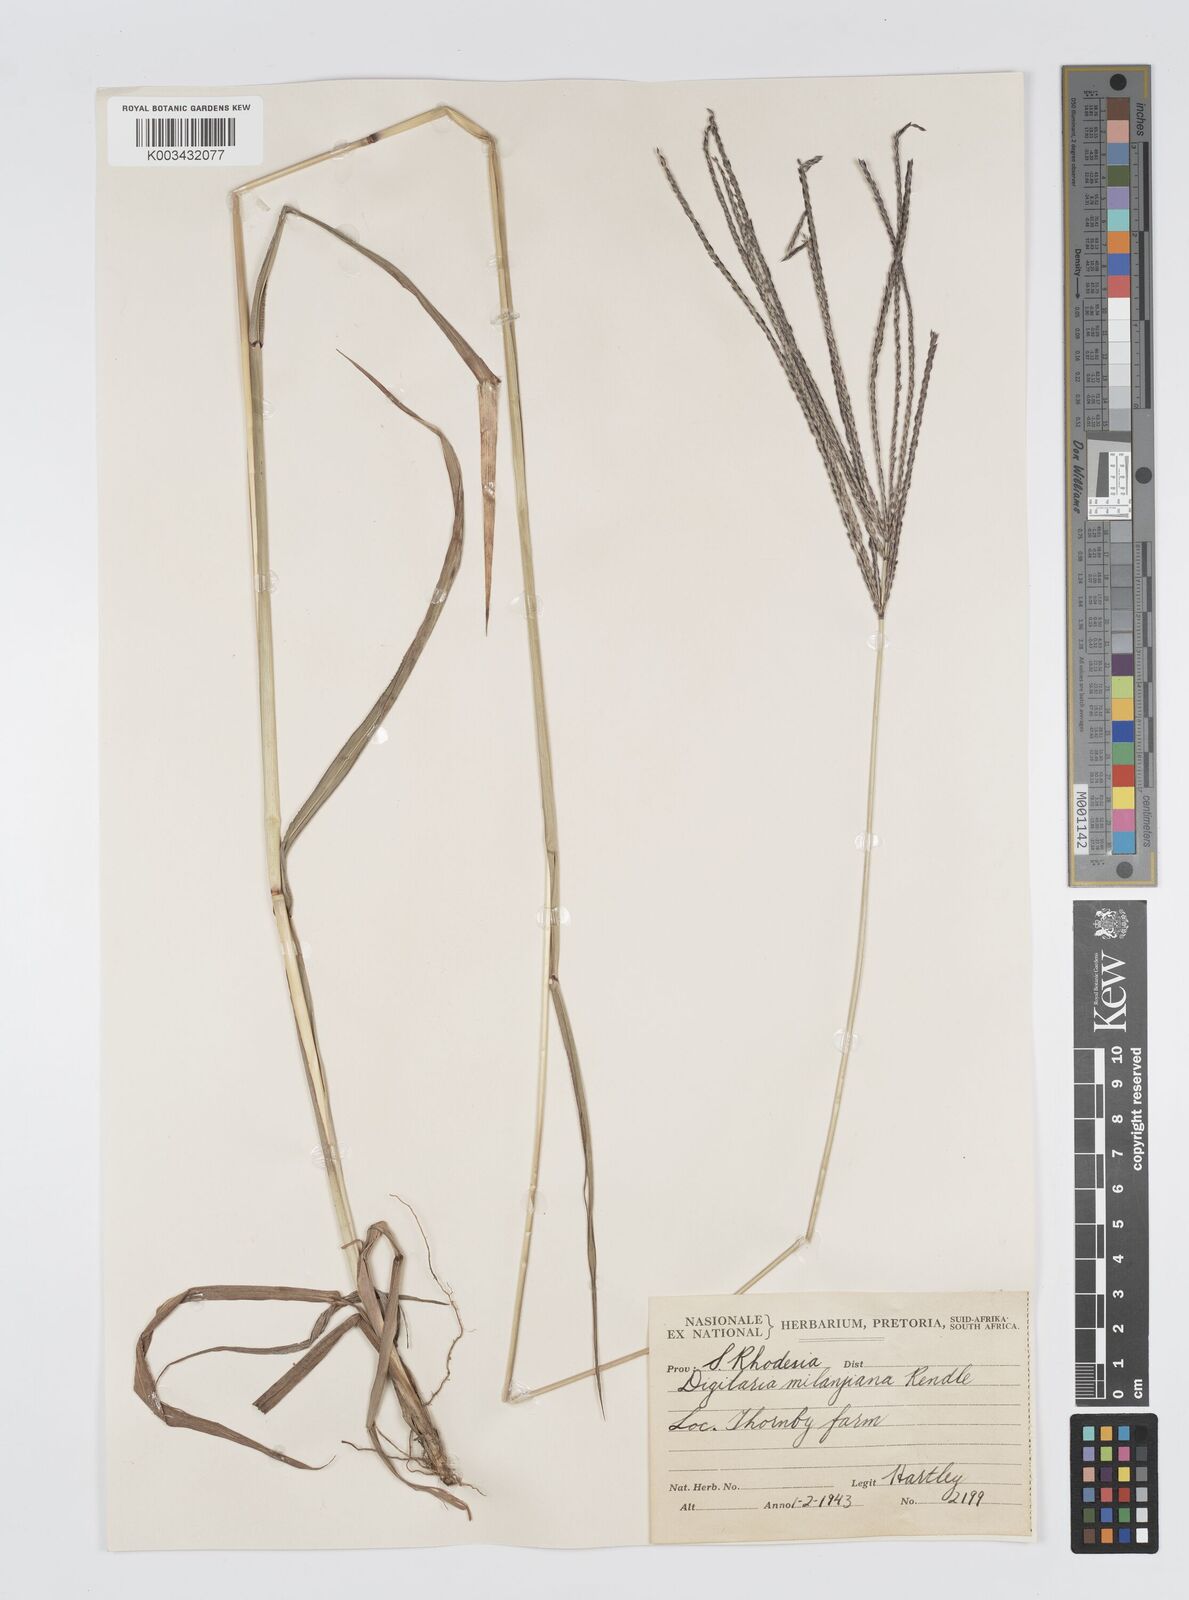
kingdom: Plantae
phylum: Tracheophyta
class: Liliopsida
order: Poales
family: Poaceae
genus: Digitaria
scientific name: Digitaria milanjiana
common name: Madagascar crabgrass
